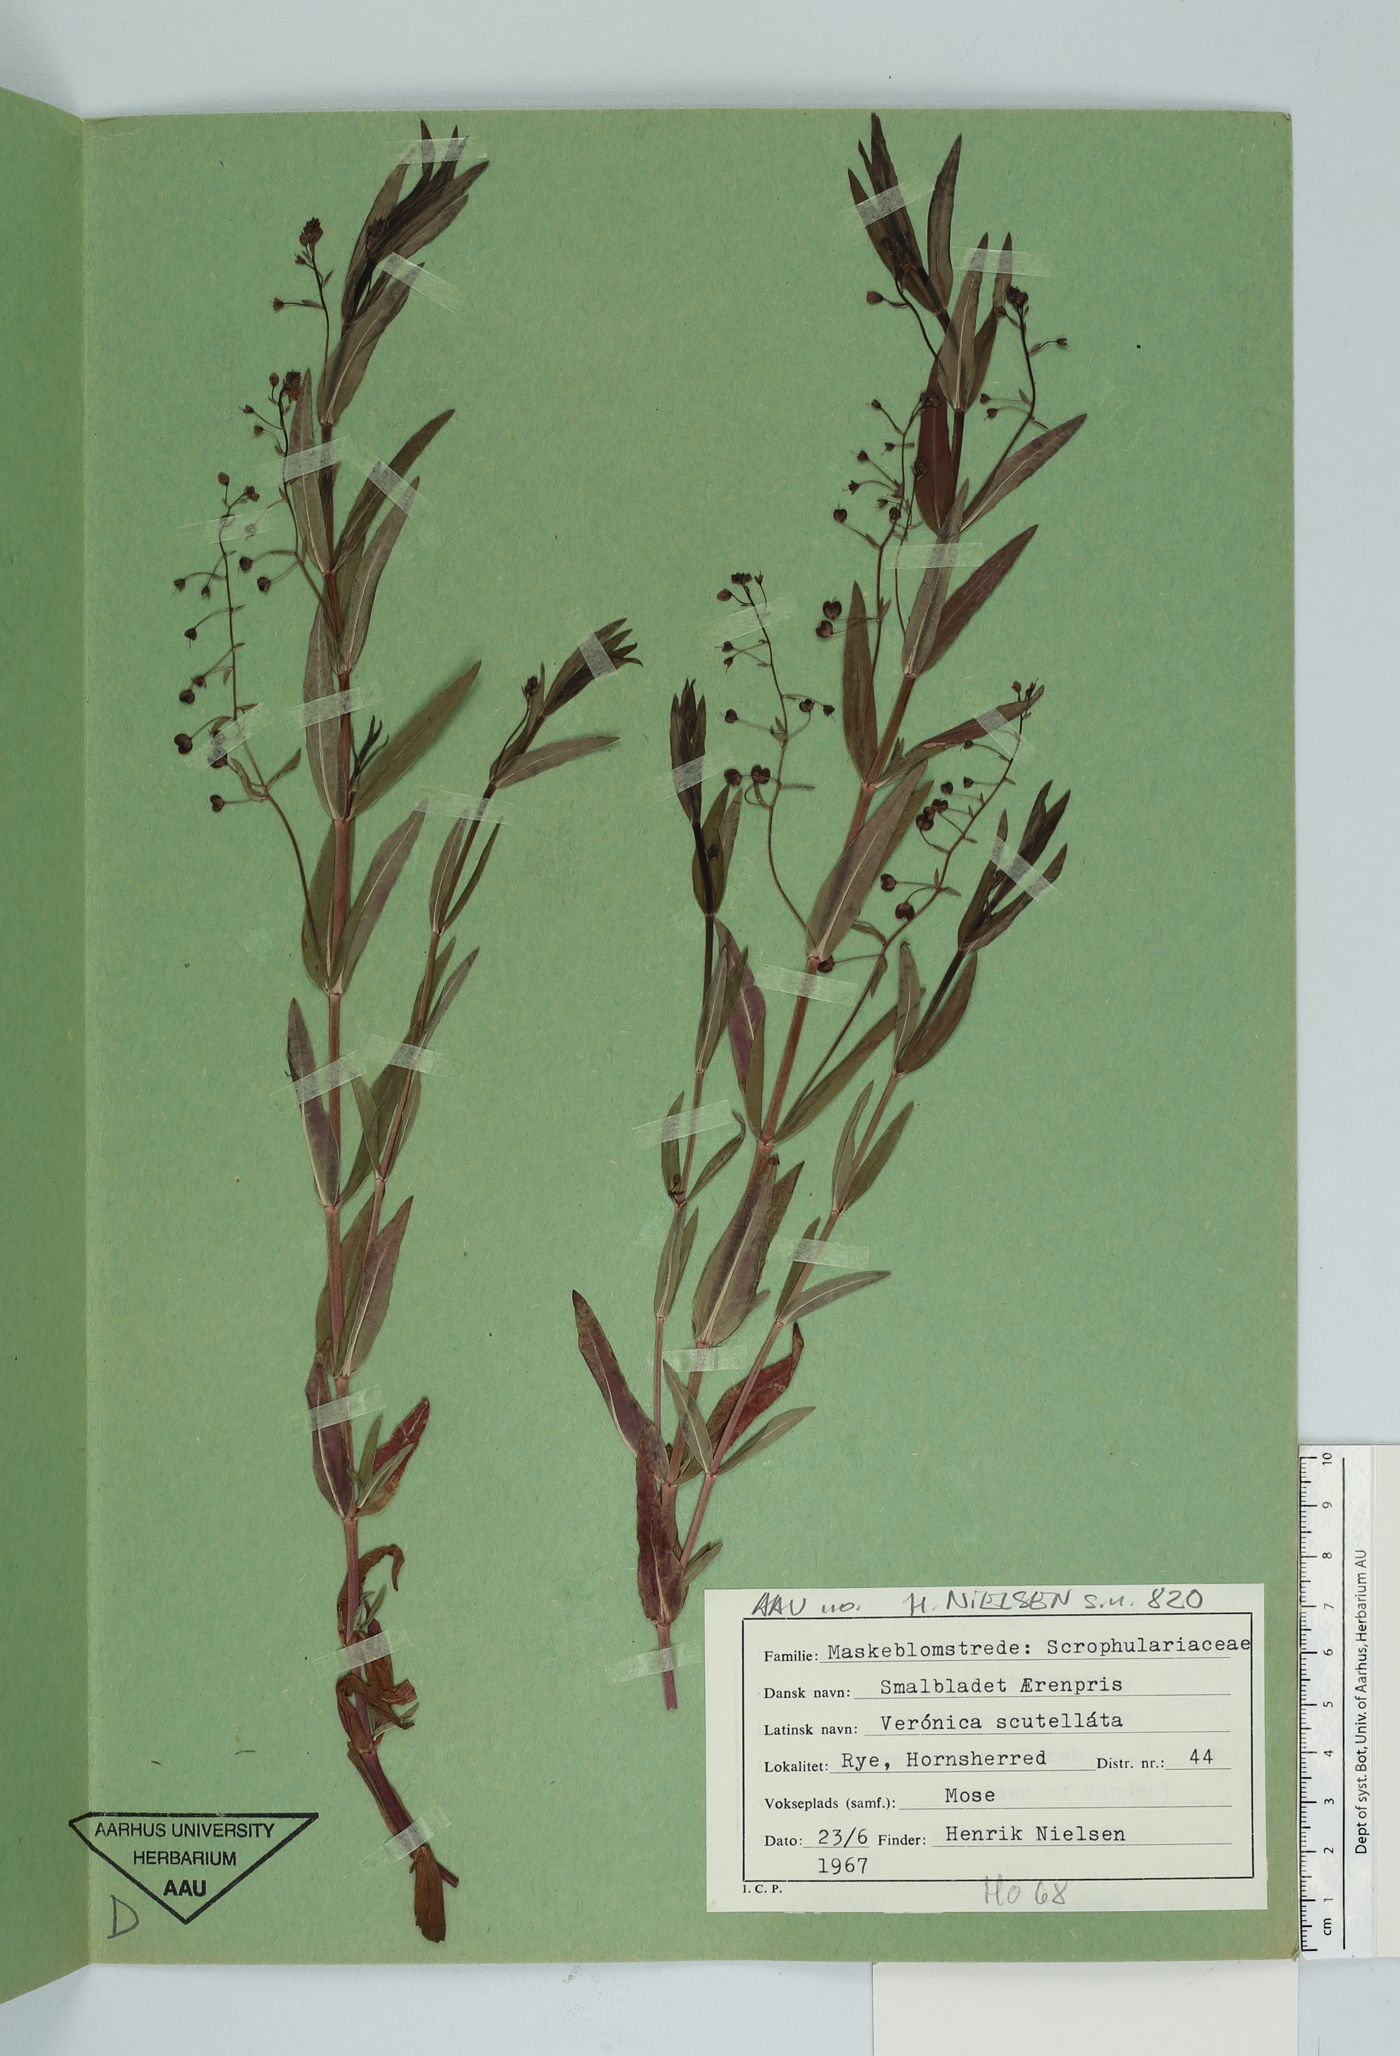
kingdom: Plantae
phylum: Tracheophyta
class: Magnoliopsida
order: Lamiales
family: Plantaginaceae
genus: Veronica
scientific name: Veronica scutellata
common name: Marsh speedwell
